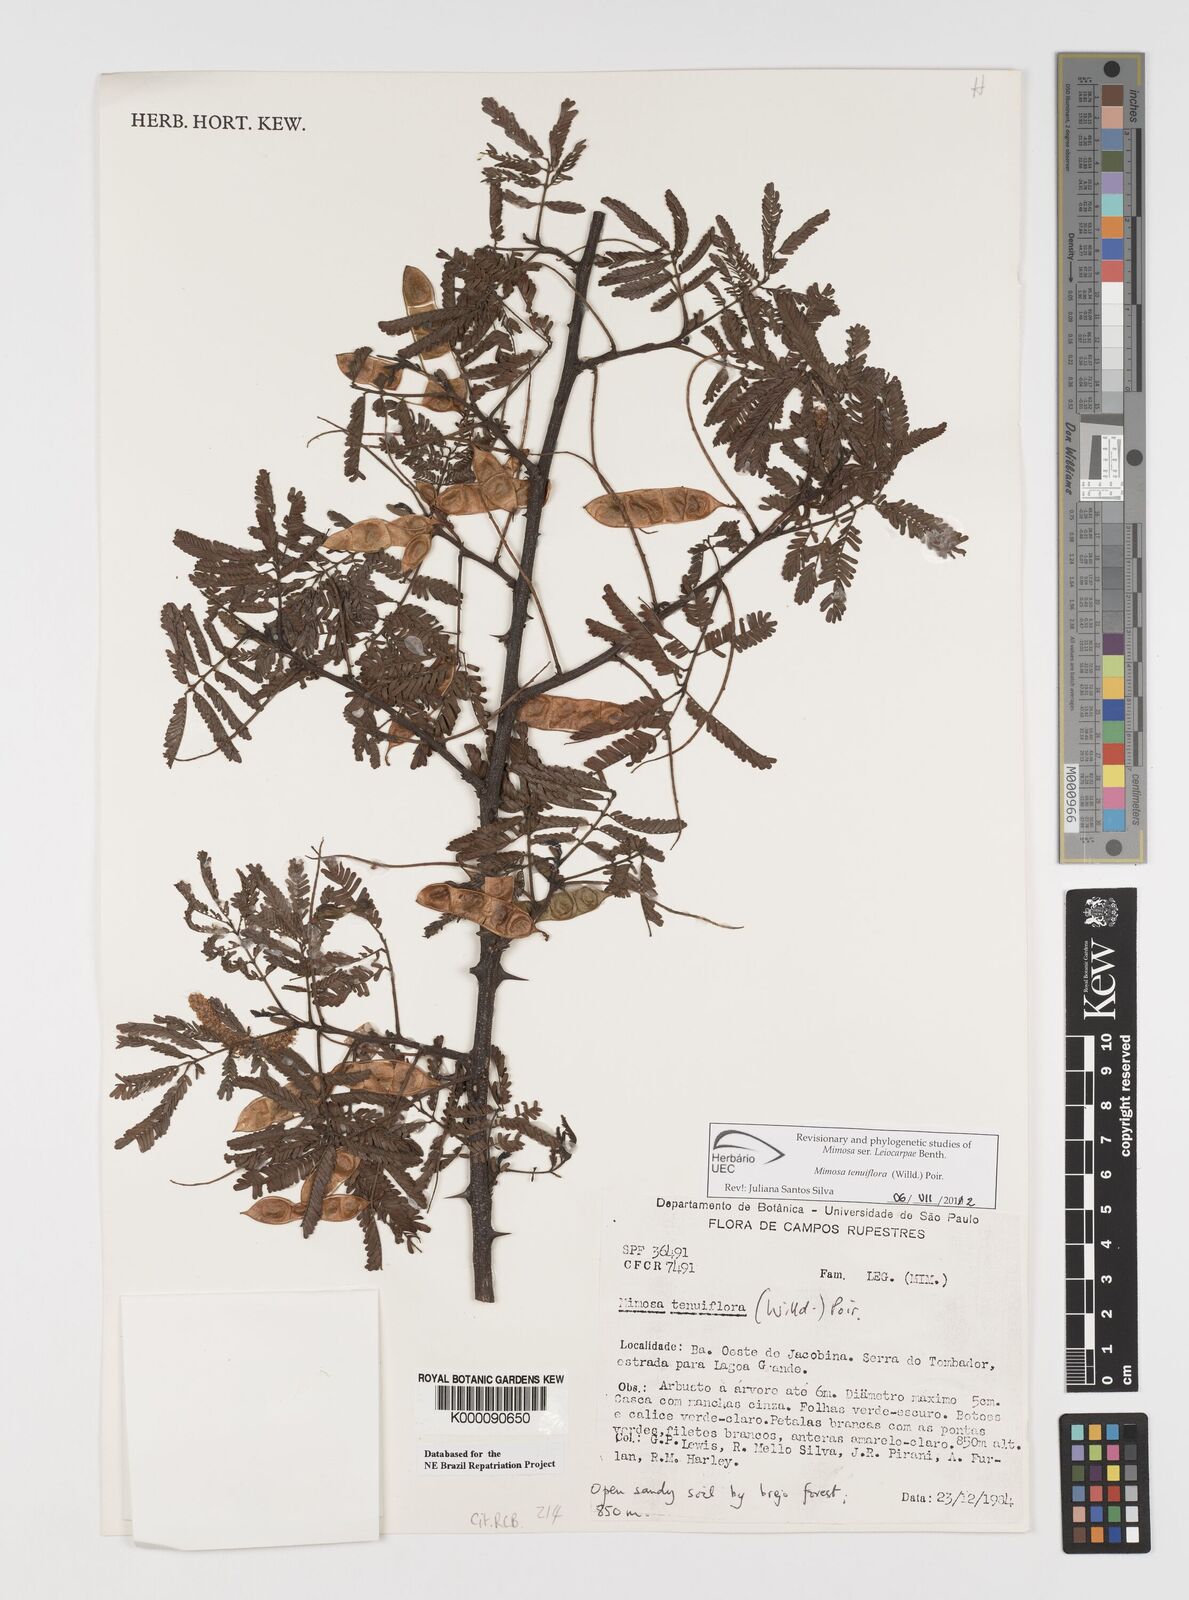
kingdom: Plantae
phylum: Tracheophyta
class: Magnoliopsida
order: Fabales
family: Fabaceae
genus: Mimosa
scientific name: Mimosa tenuiflora
